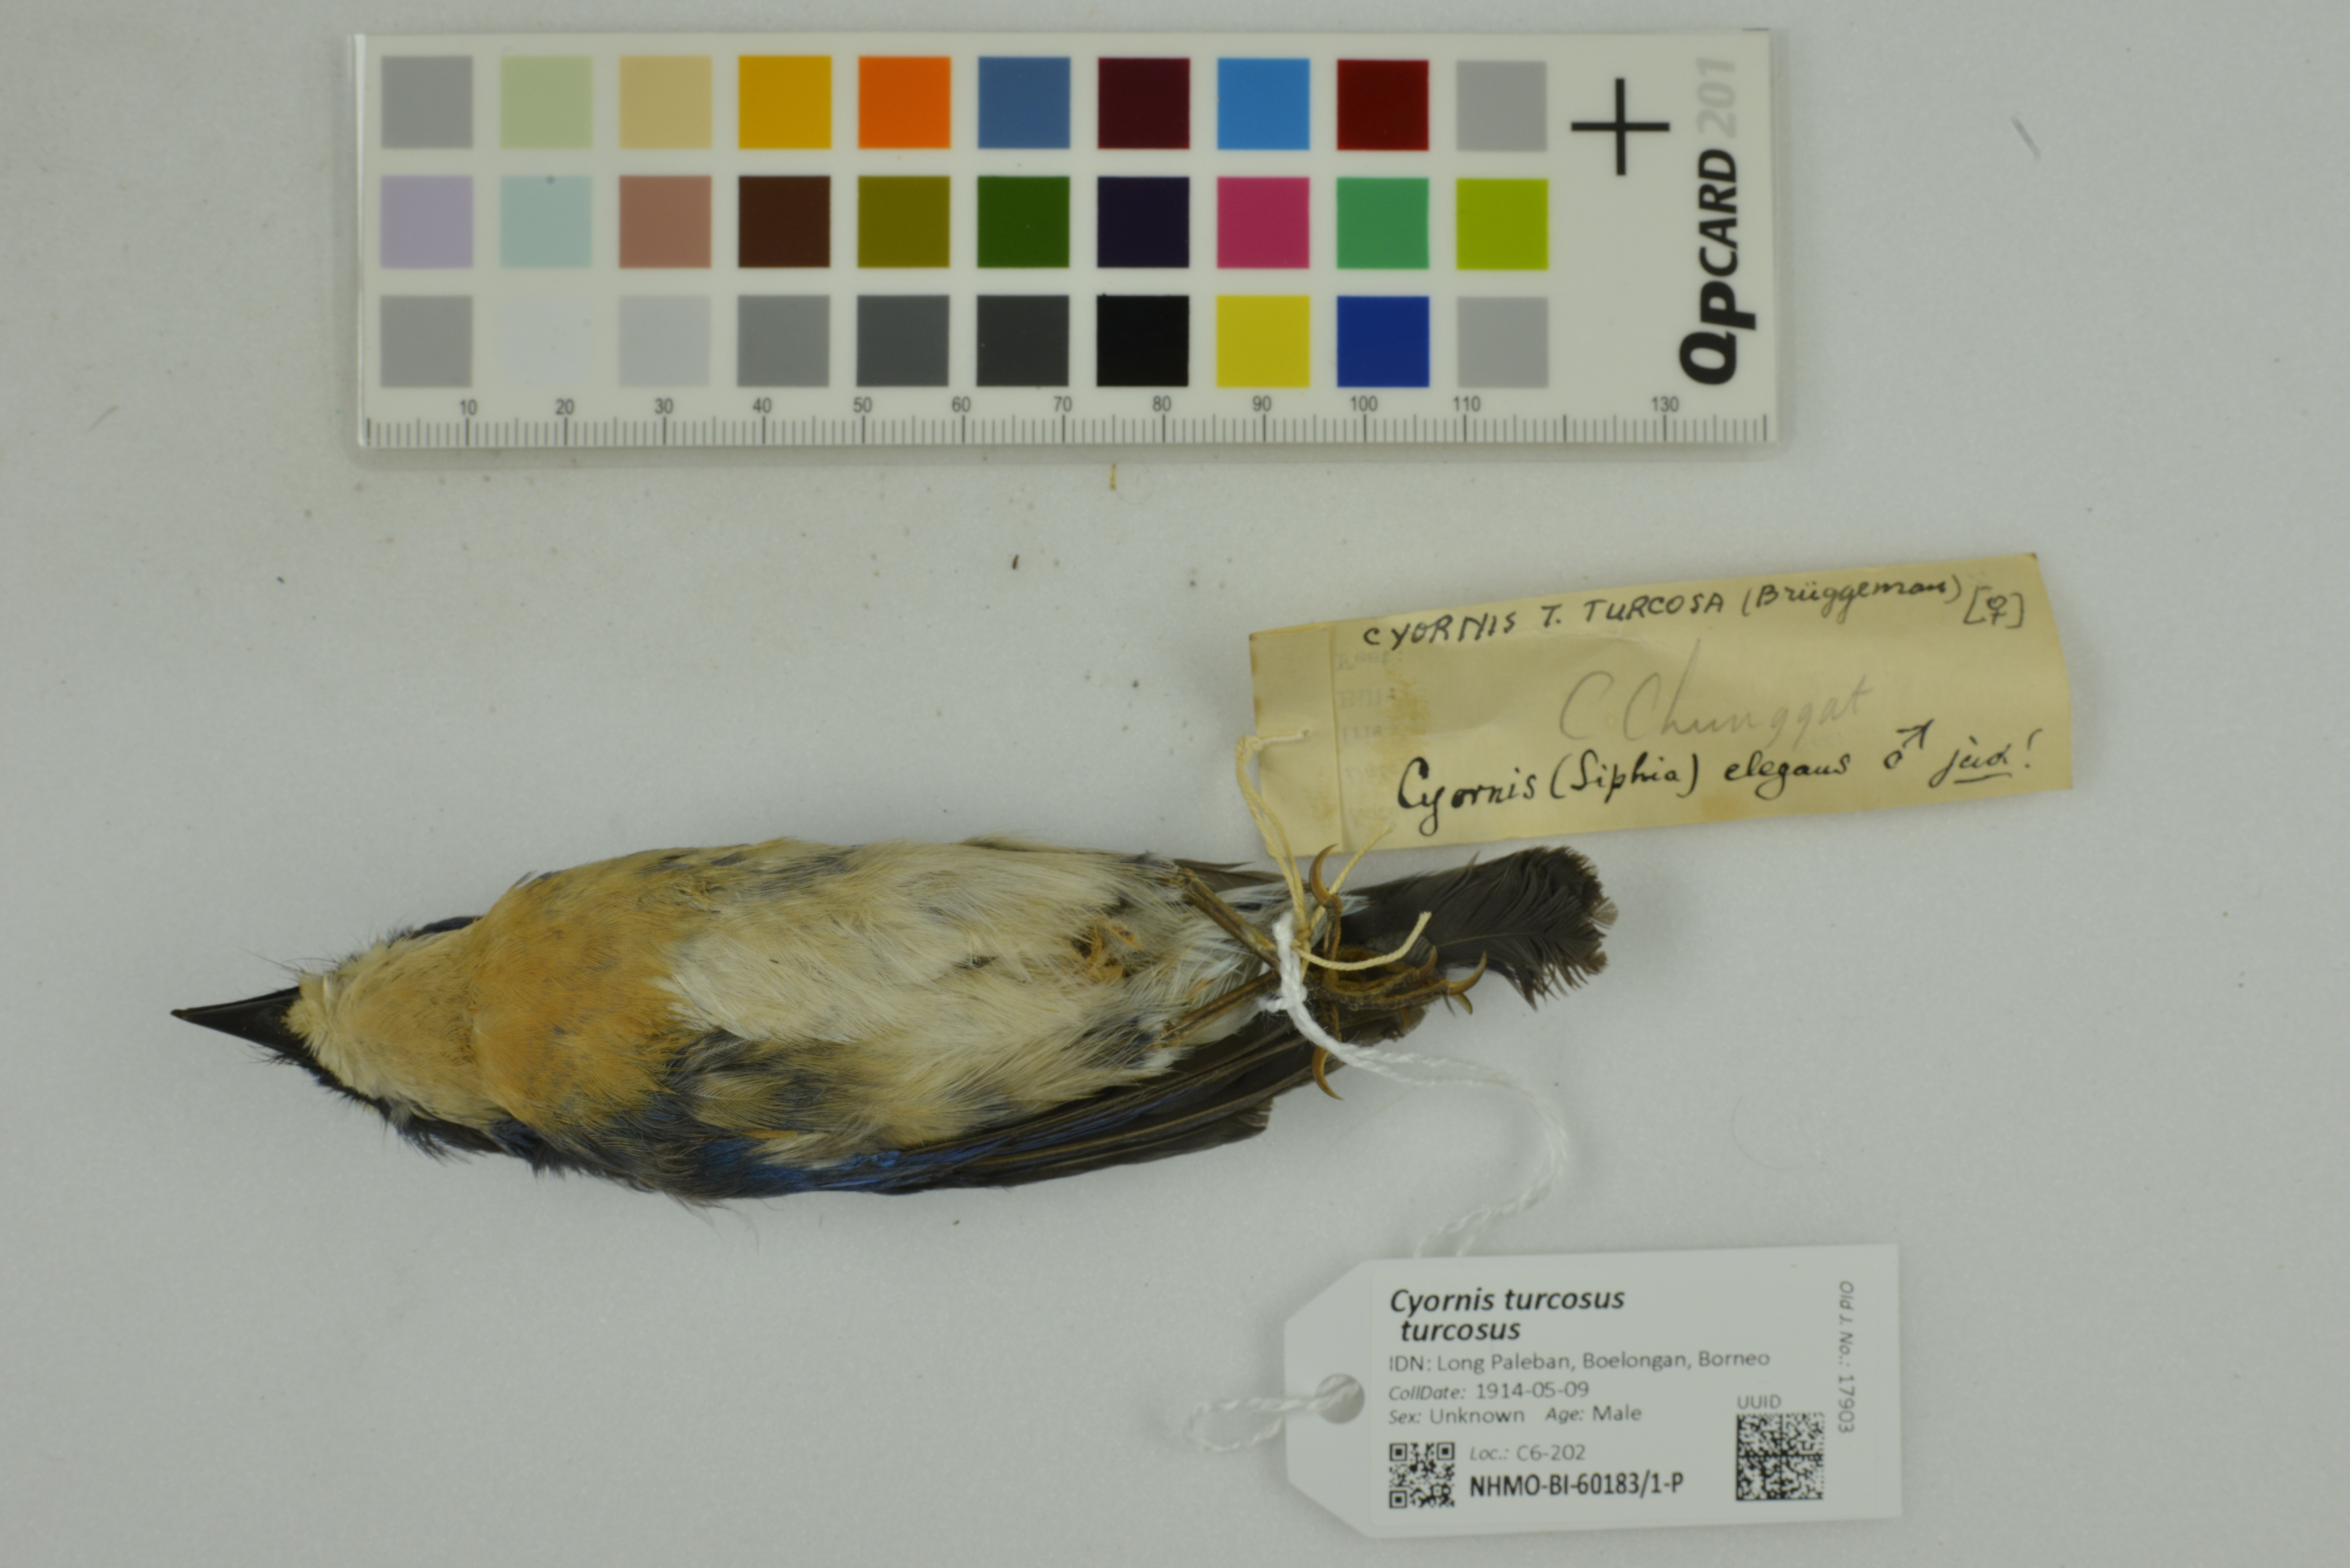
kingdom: Animalia
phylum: Chordata
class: Aves
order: Passeriformes
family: Muscicapidae
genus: Cyornis
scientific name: Cyornis turcosus
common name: Malaysian blue flycatcher
